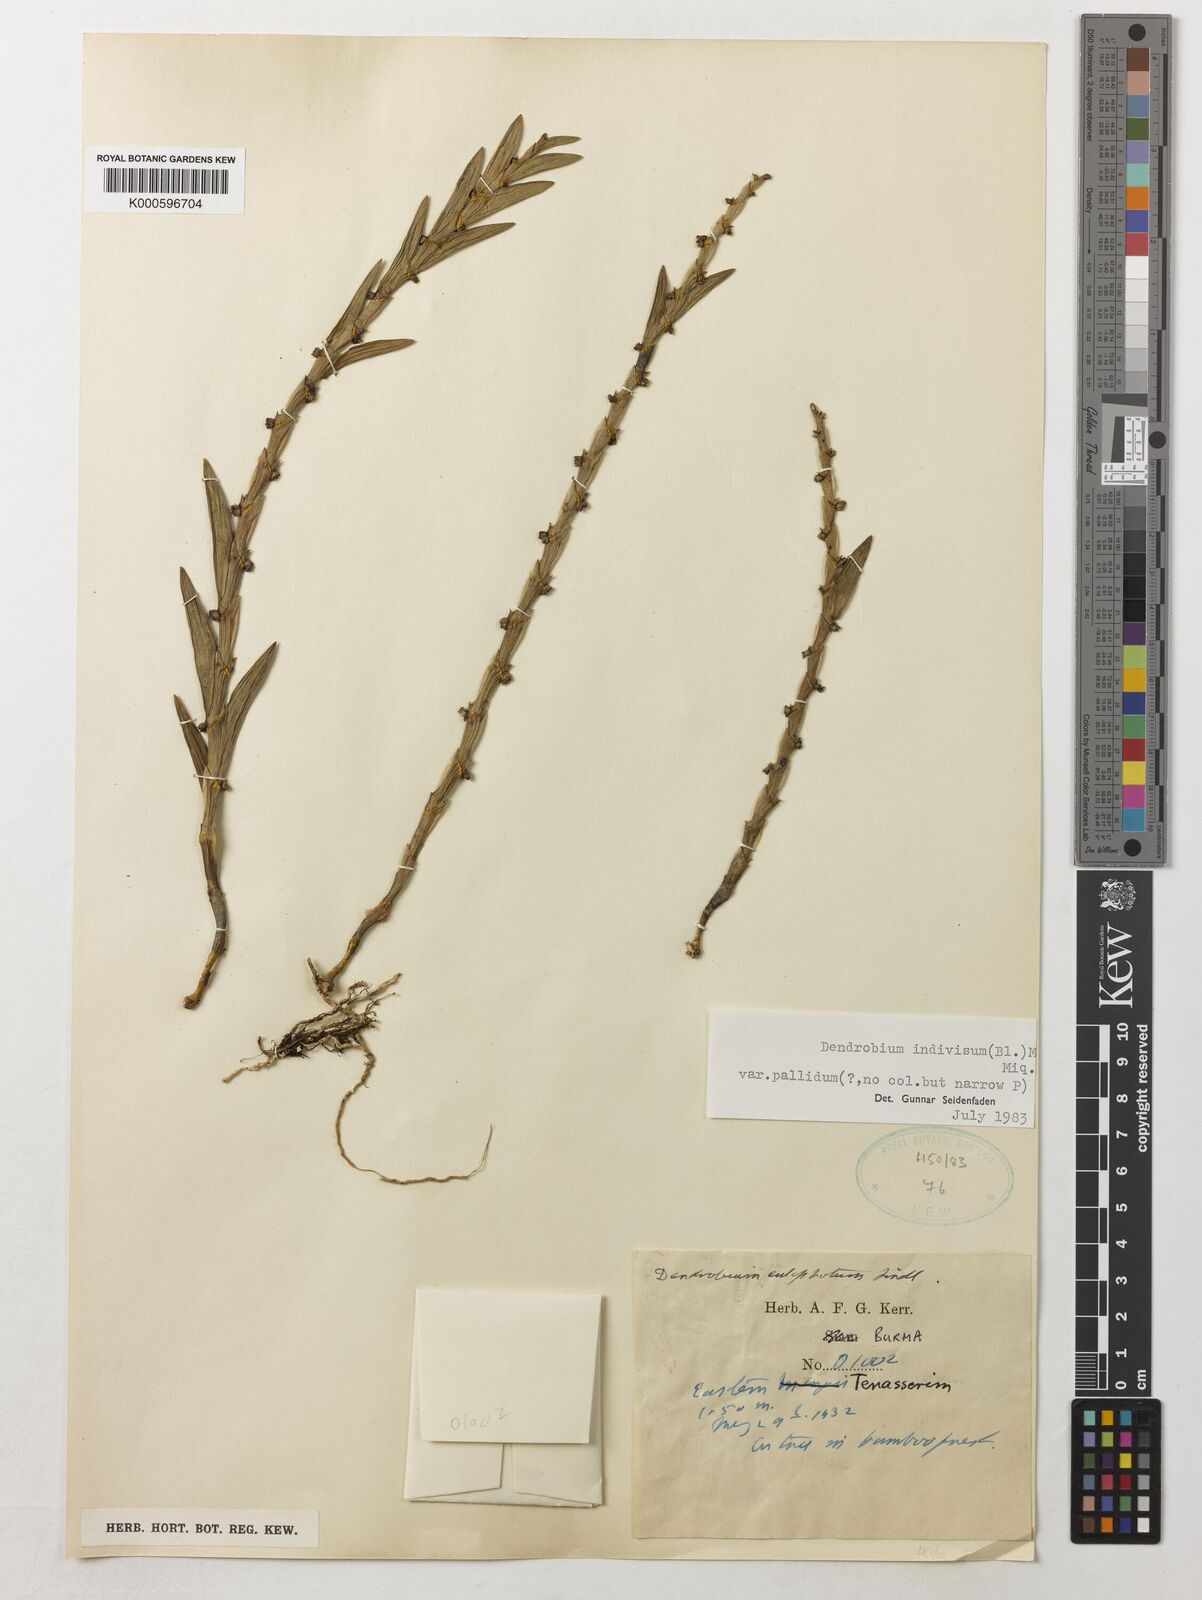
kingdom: Plantae
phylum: Tracheophyta
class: Liliopsida
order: Asparagales
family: Orchidaceae
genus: Dendrobium
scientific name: Dendrobium indivisum
